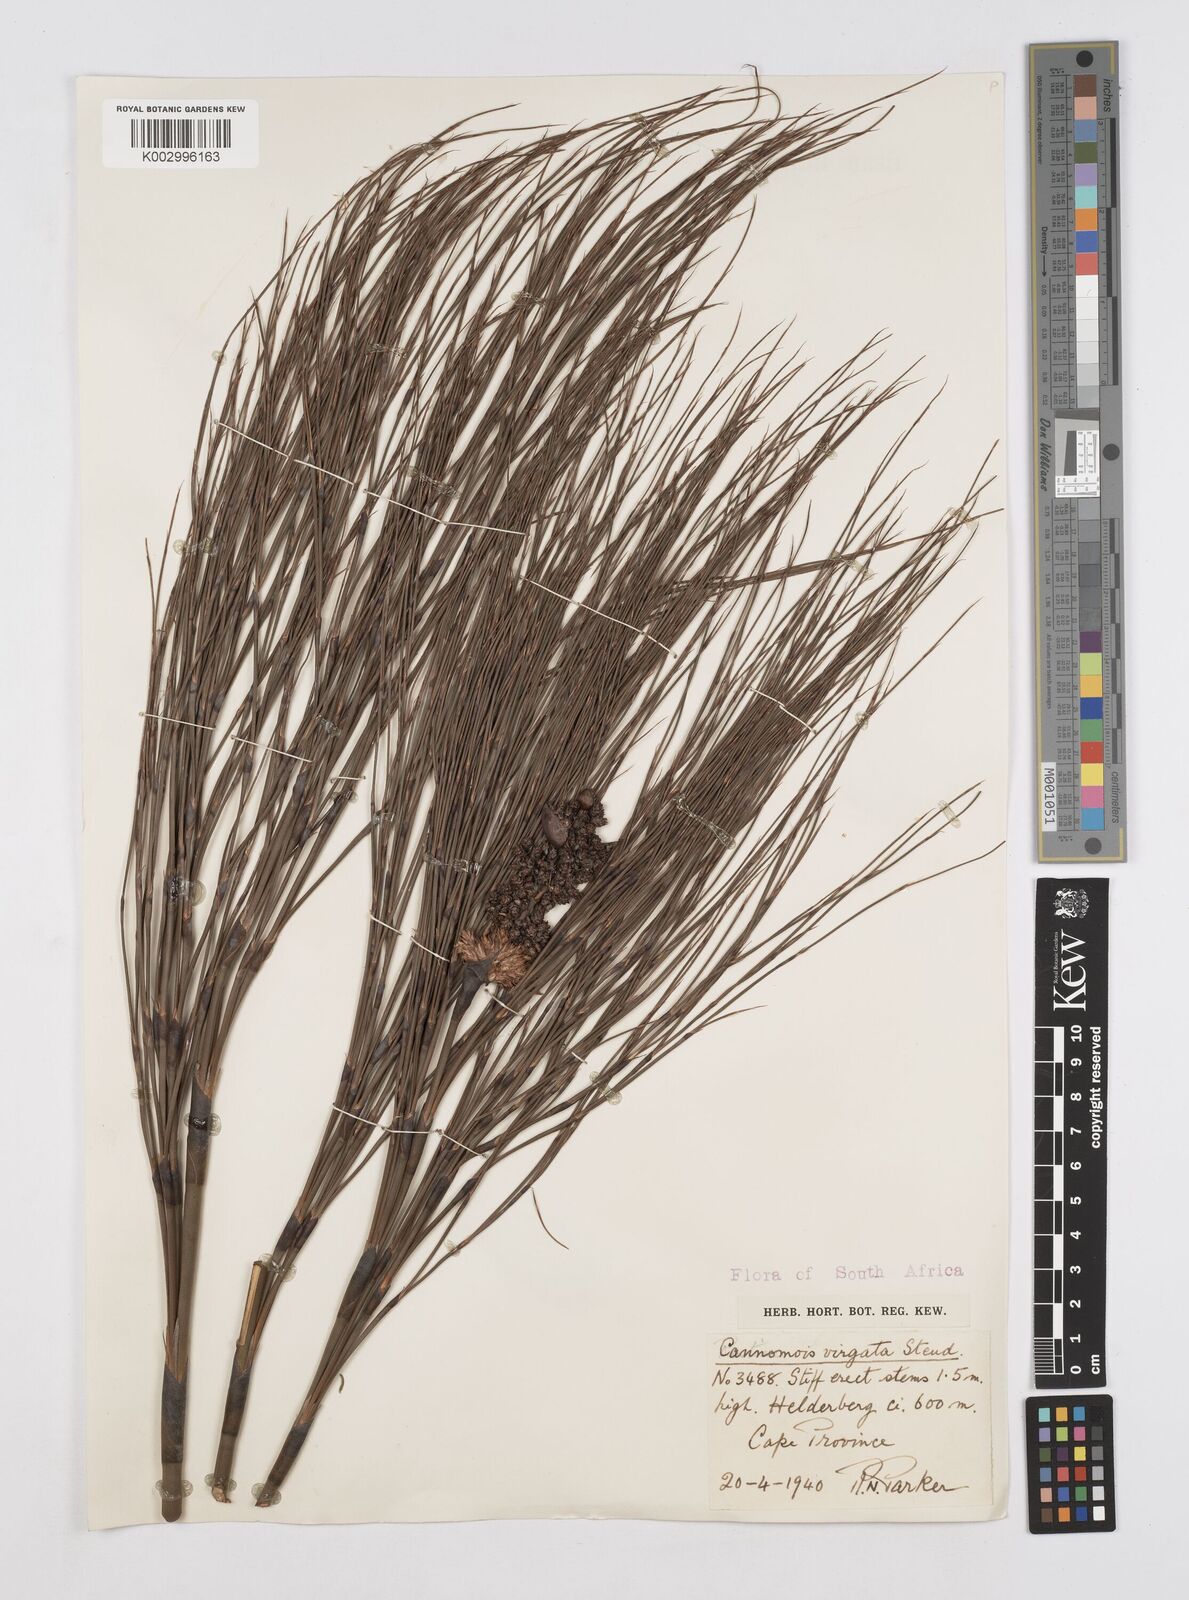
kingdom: Plantae
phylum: Tracheophyta
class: Liliopsida
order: Poales
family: Restionaceae
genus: Cannomois
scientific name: Cannomois virgata
